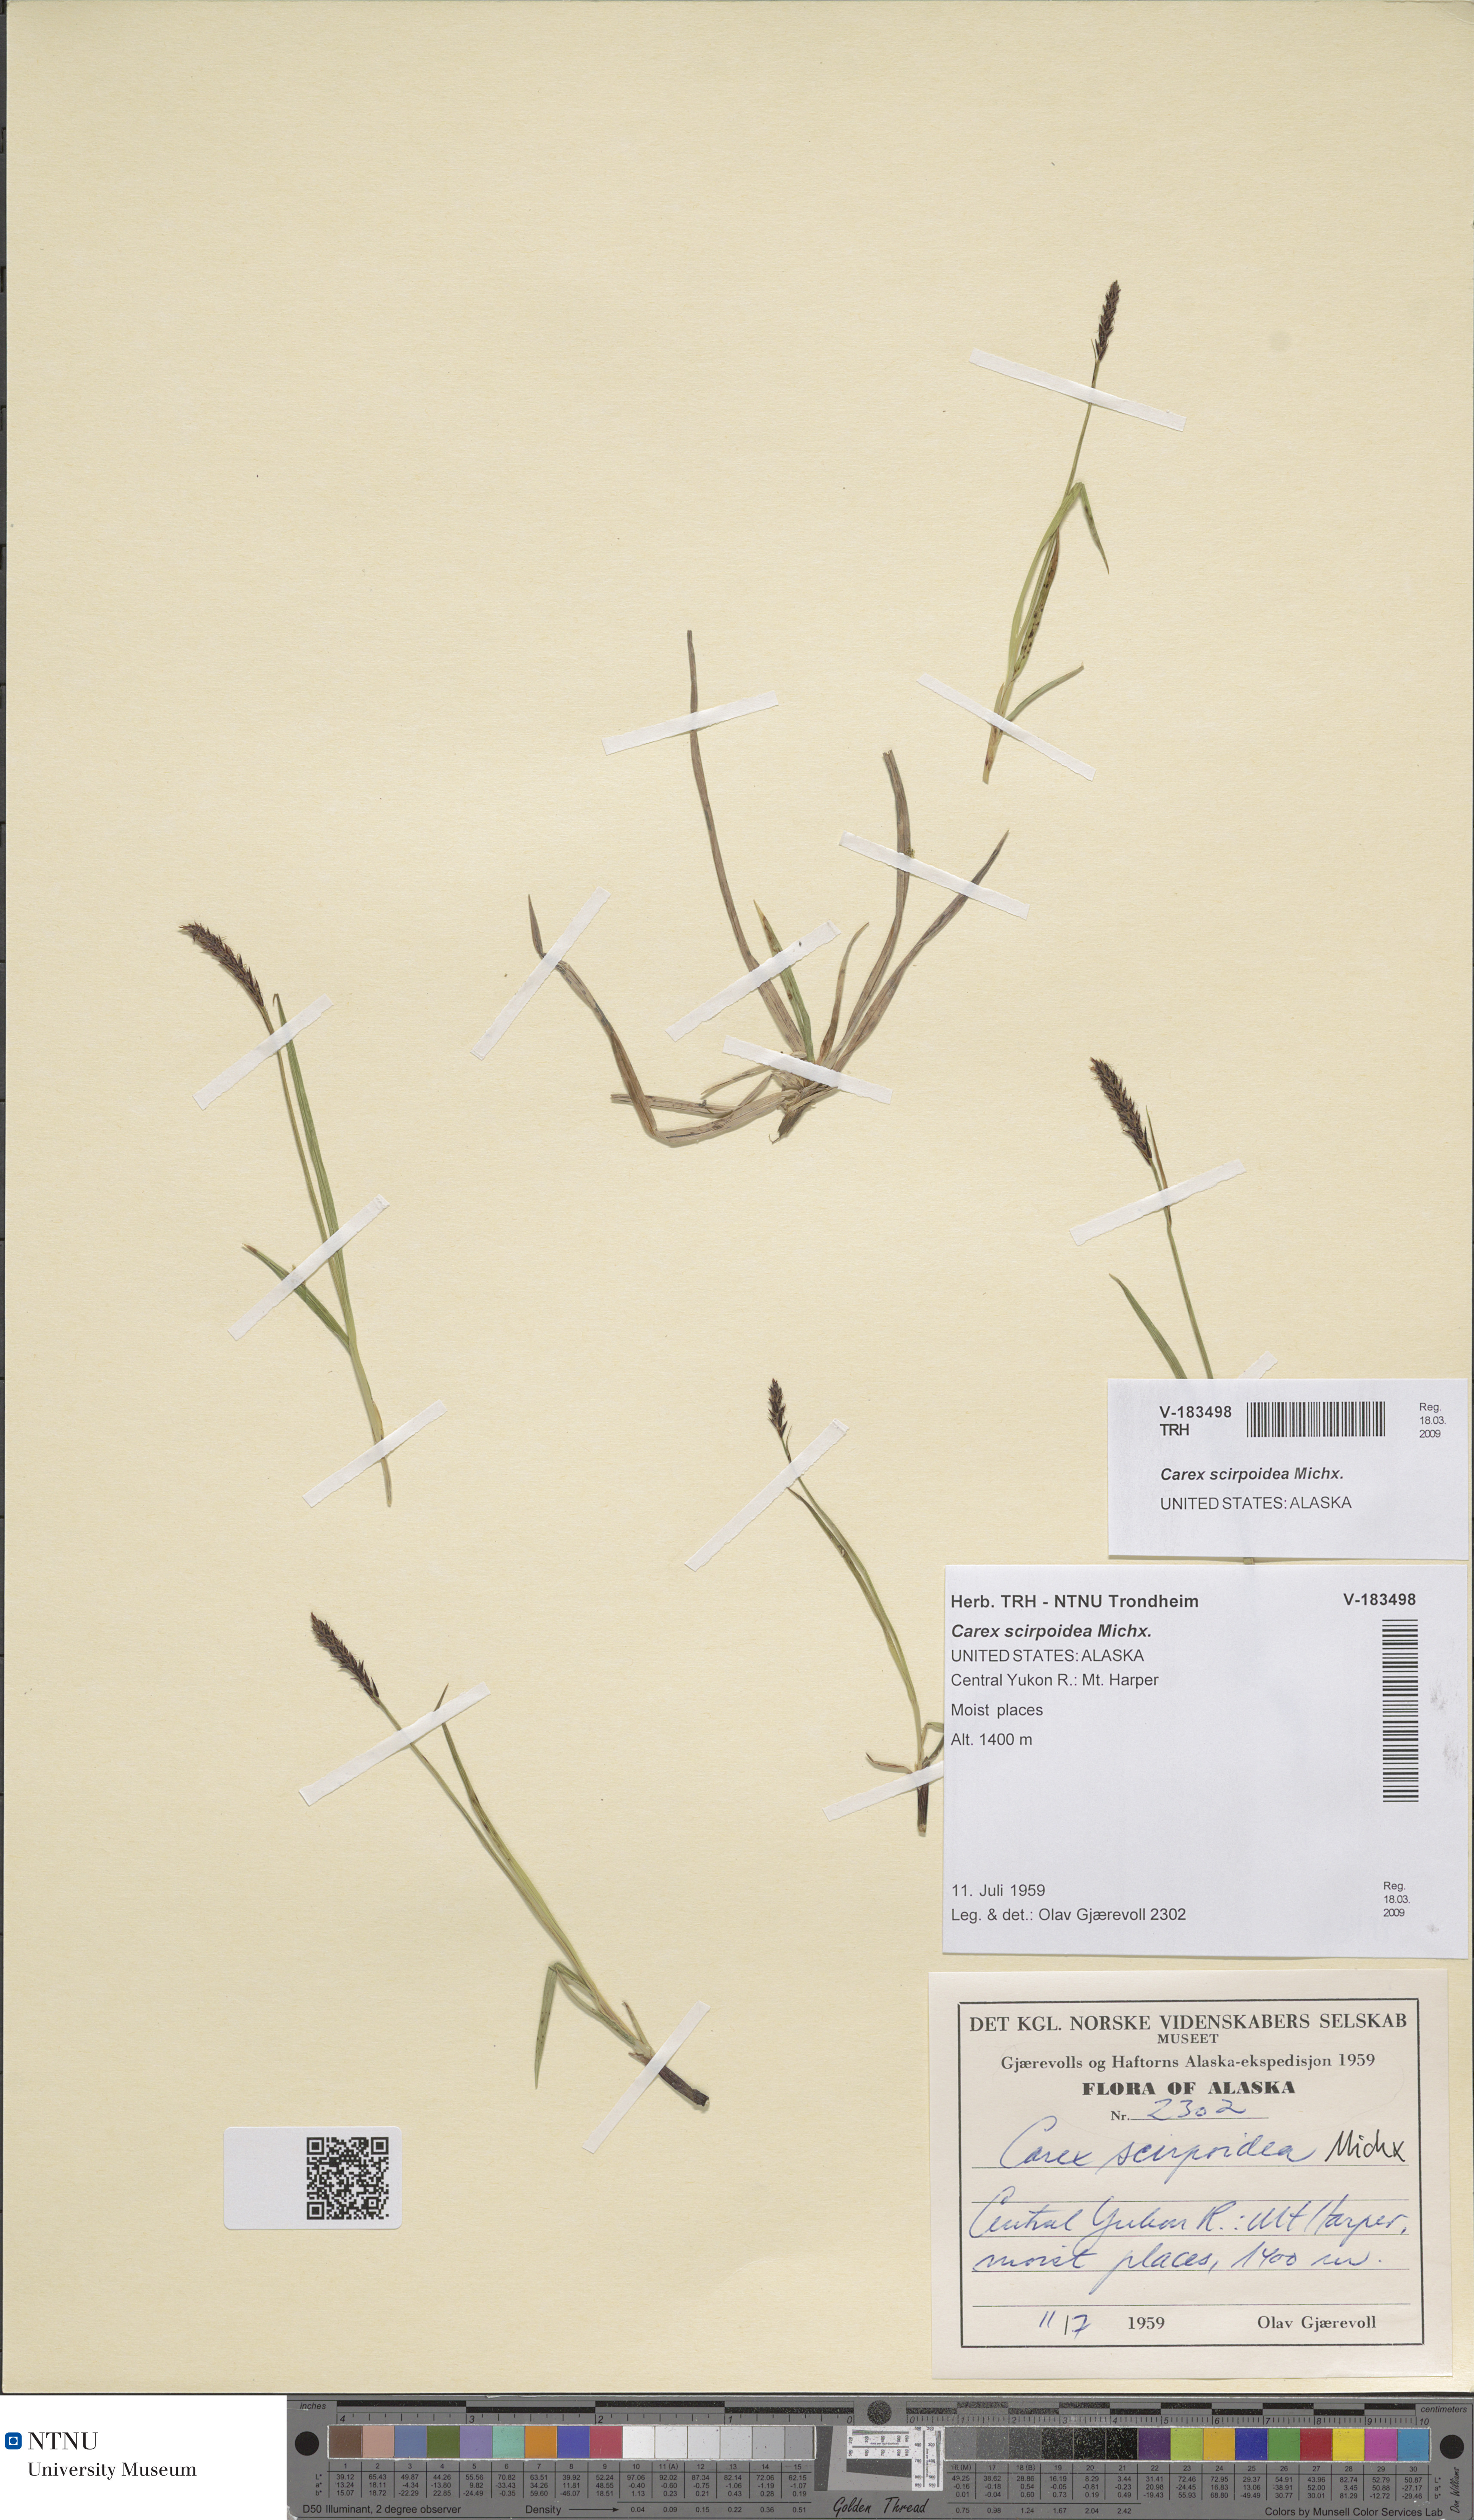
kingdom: Plantae
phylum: Tracheophyta
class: Liliopsida
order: Poales
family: Cyperaceae
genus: Carex
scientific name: Carex scirpoidea
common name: Canada single-spike sedge
